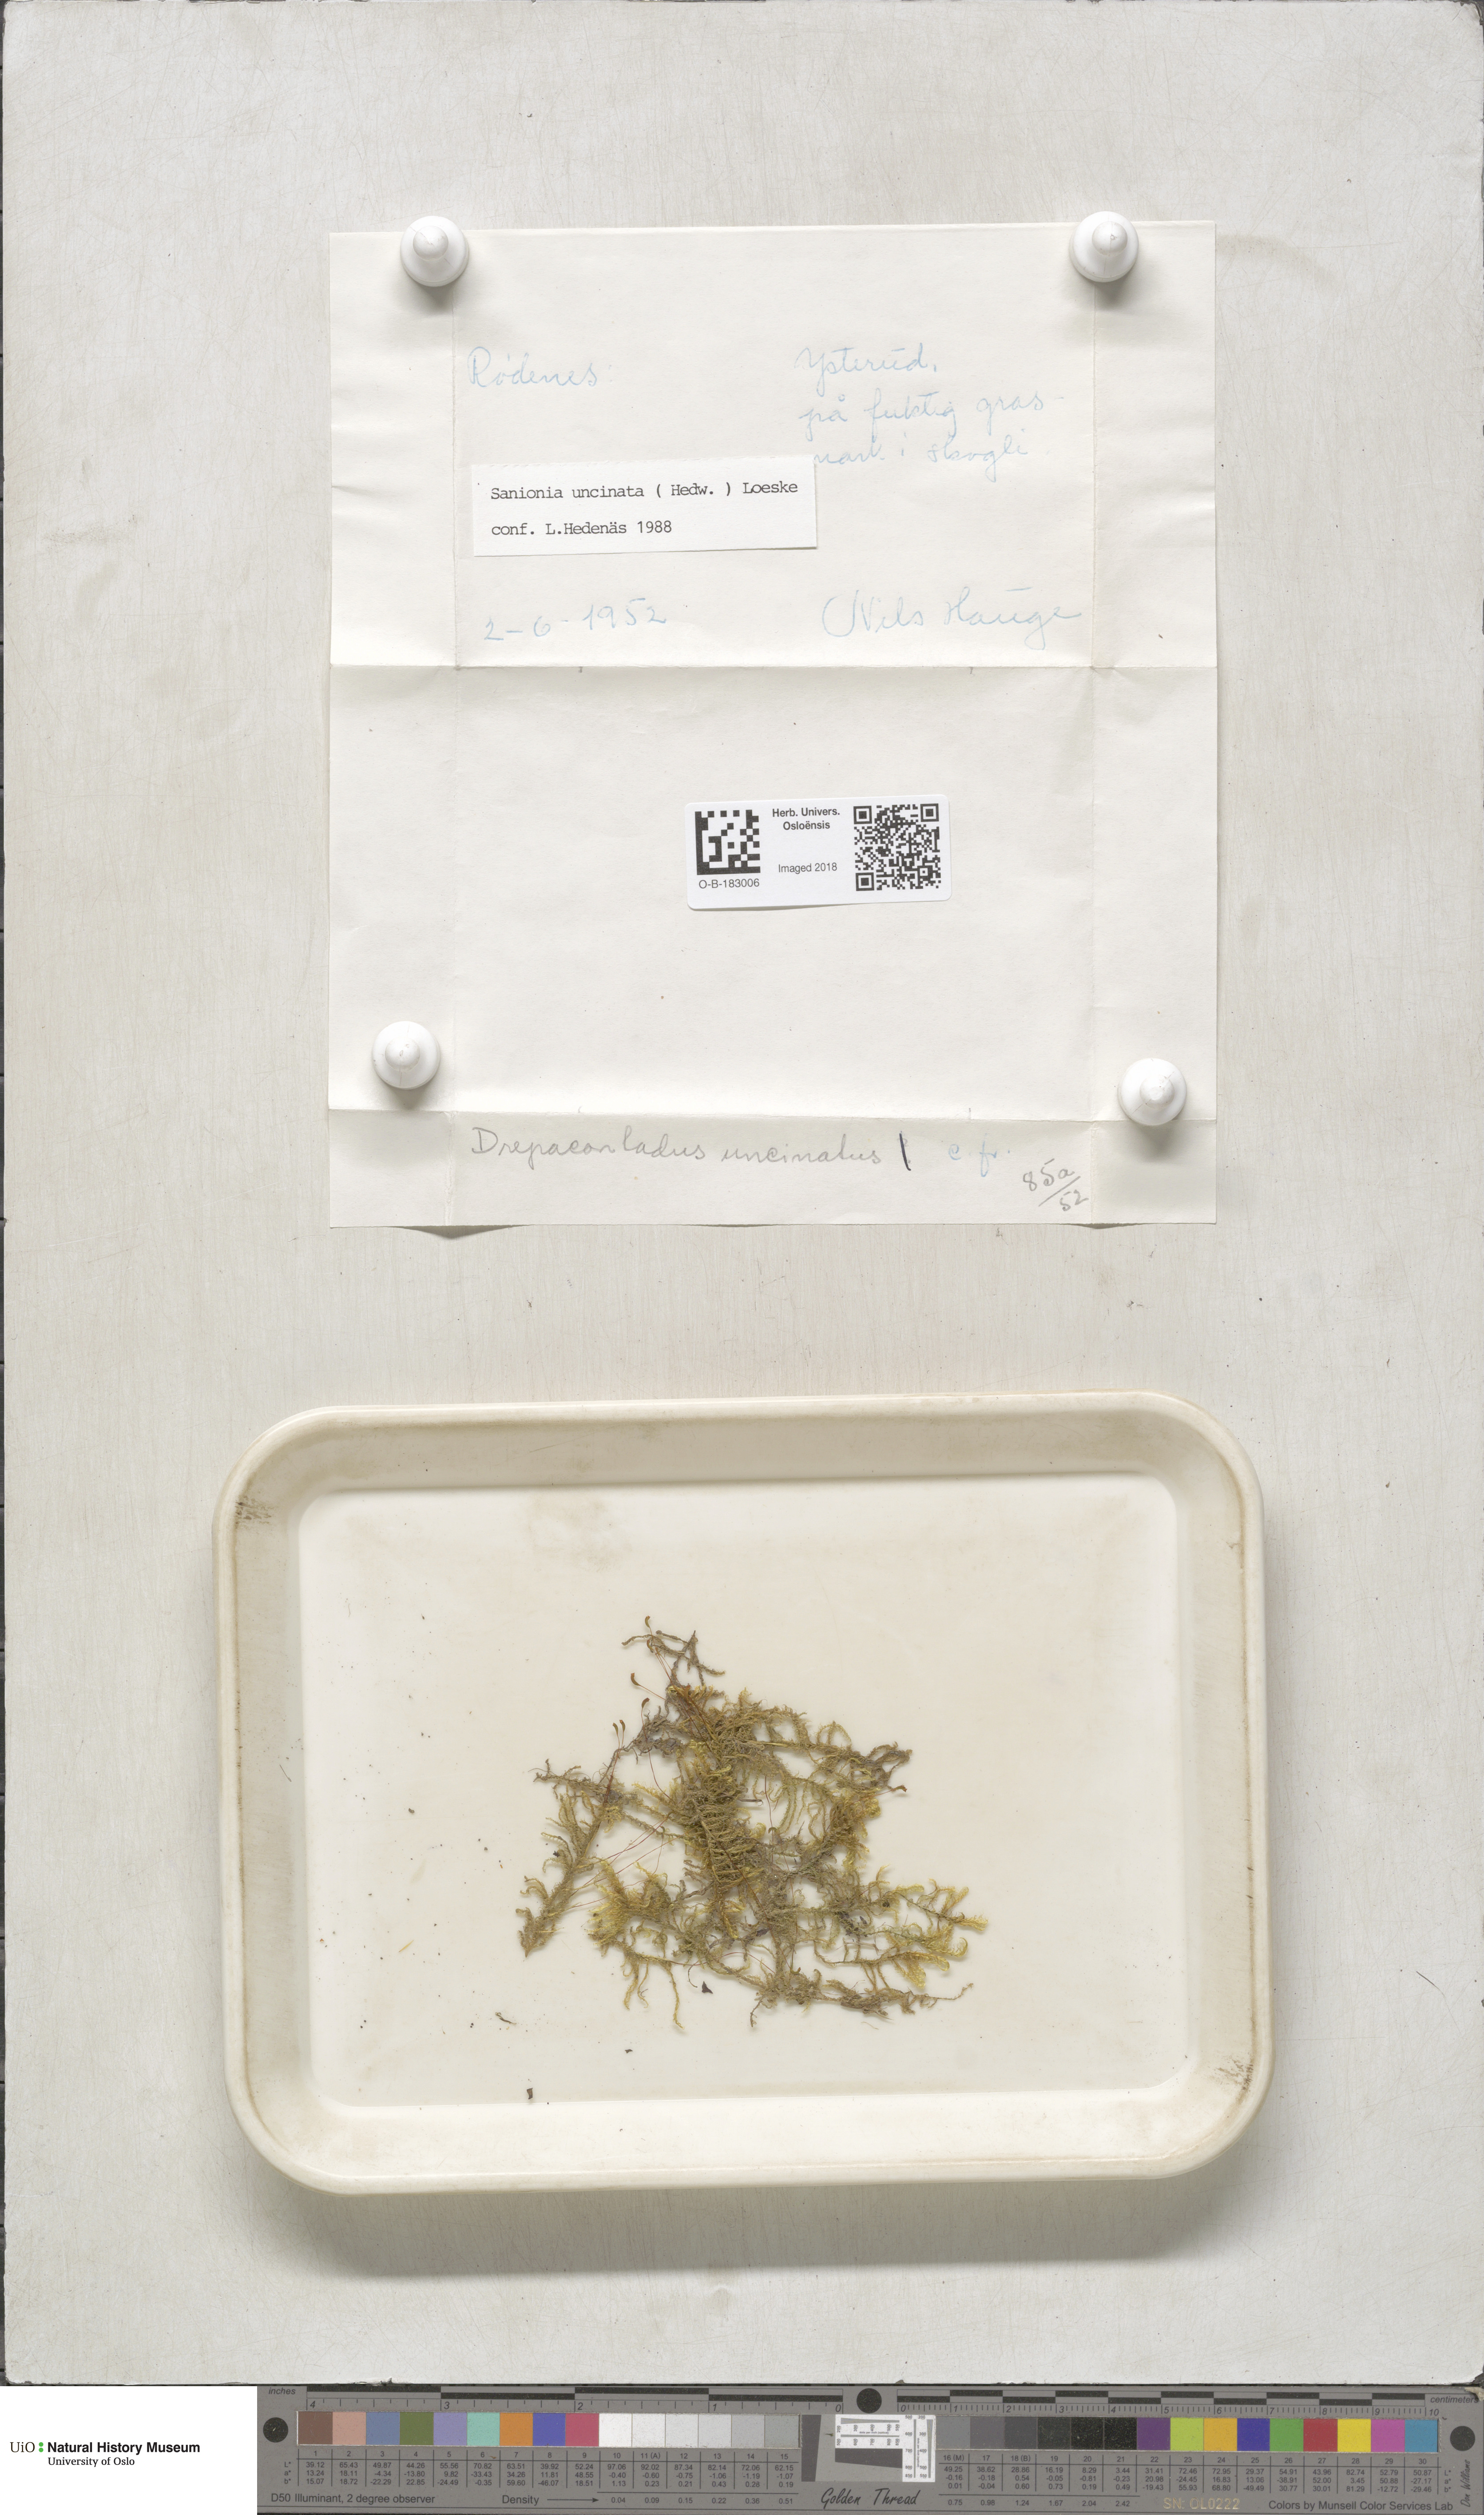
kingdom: Plantae
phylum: Bryophyta
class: Bryopsida
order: Hypnales
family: Scorpidiaceae
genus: Sanionia
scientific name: Sanionia uncinata
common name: Sickle moss
